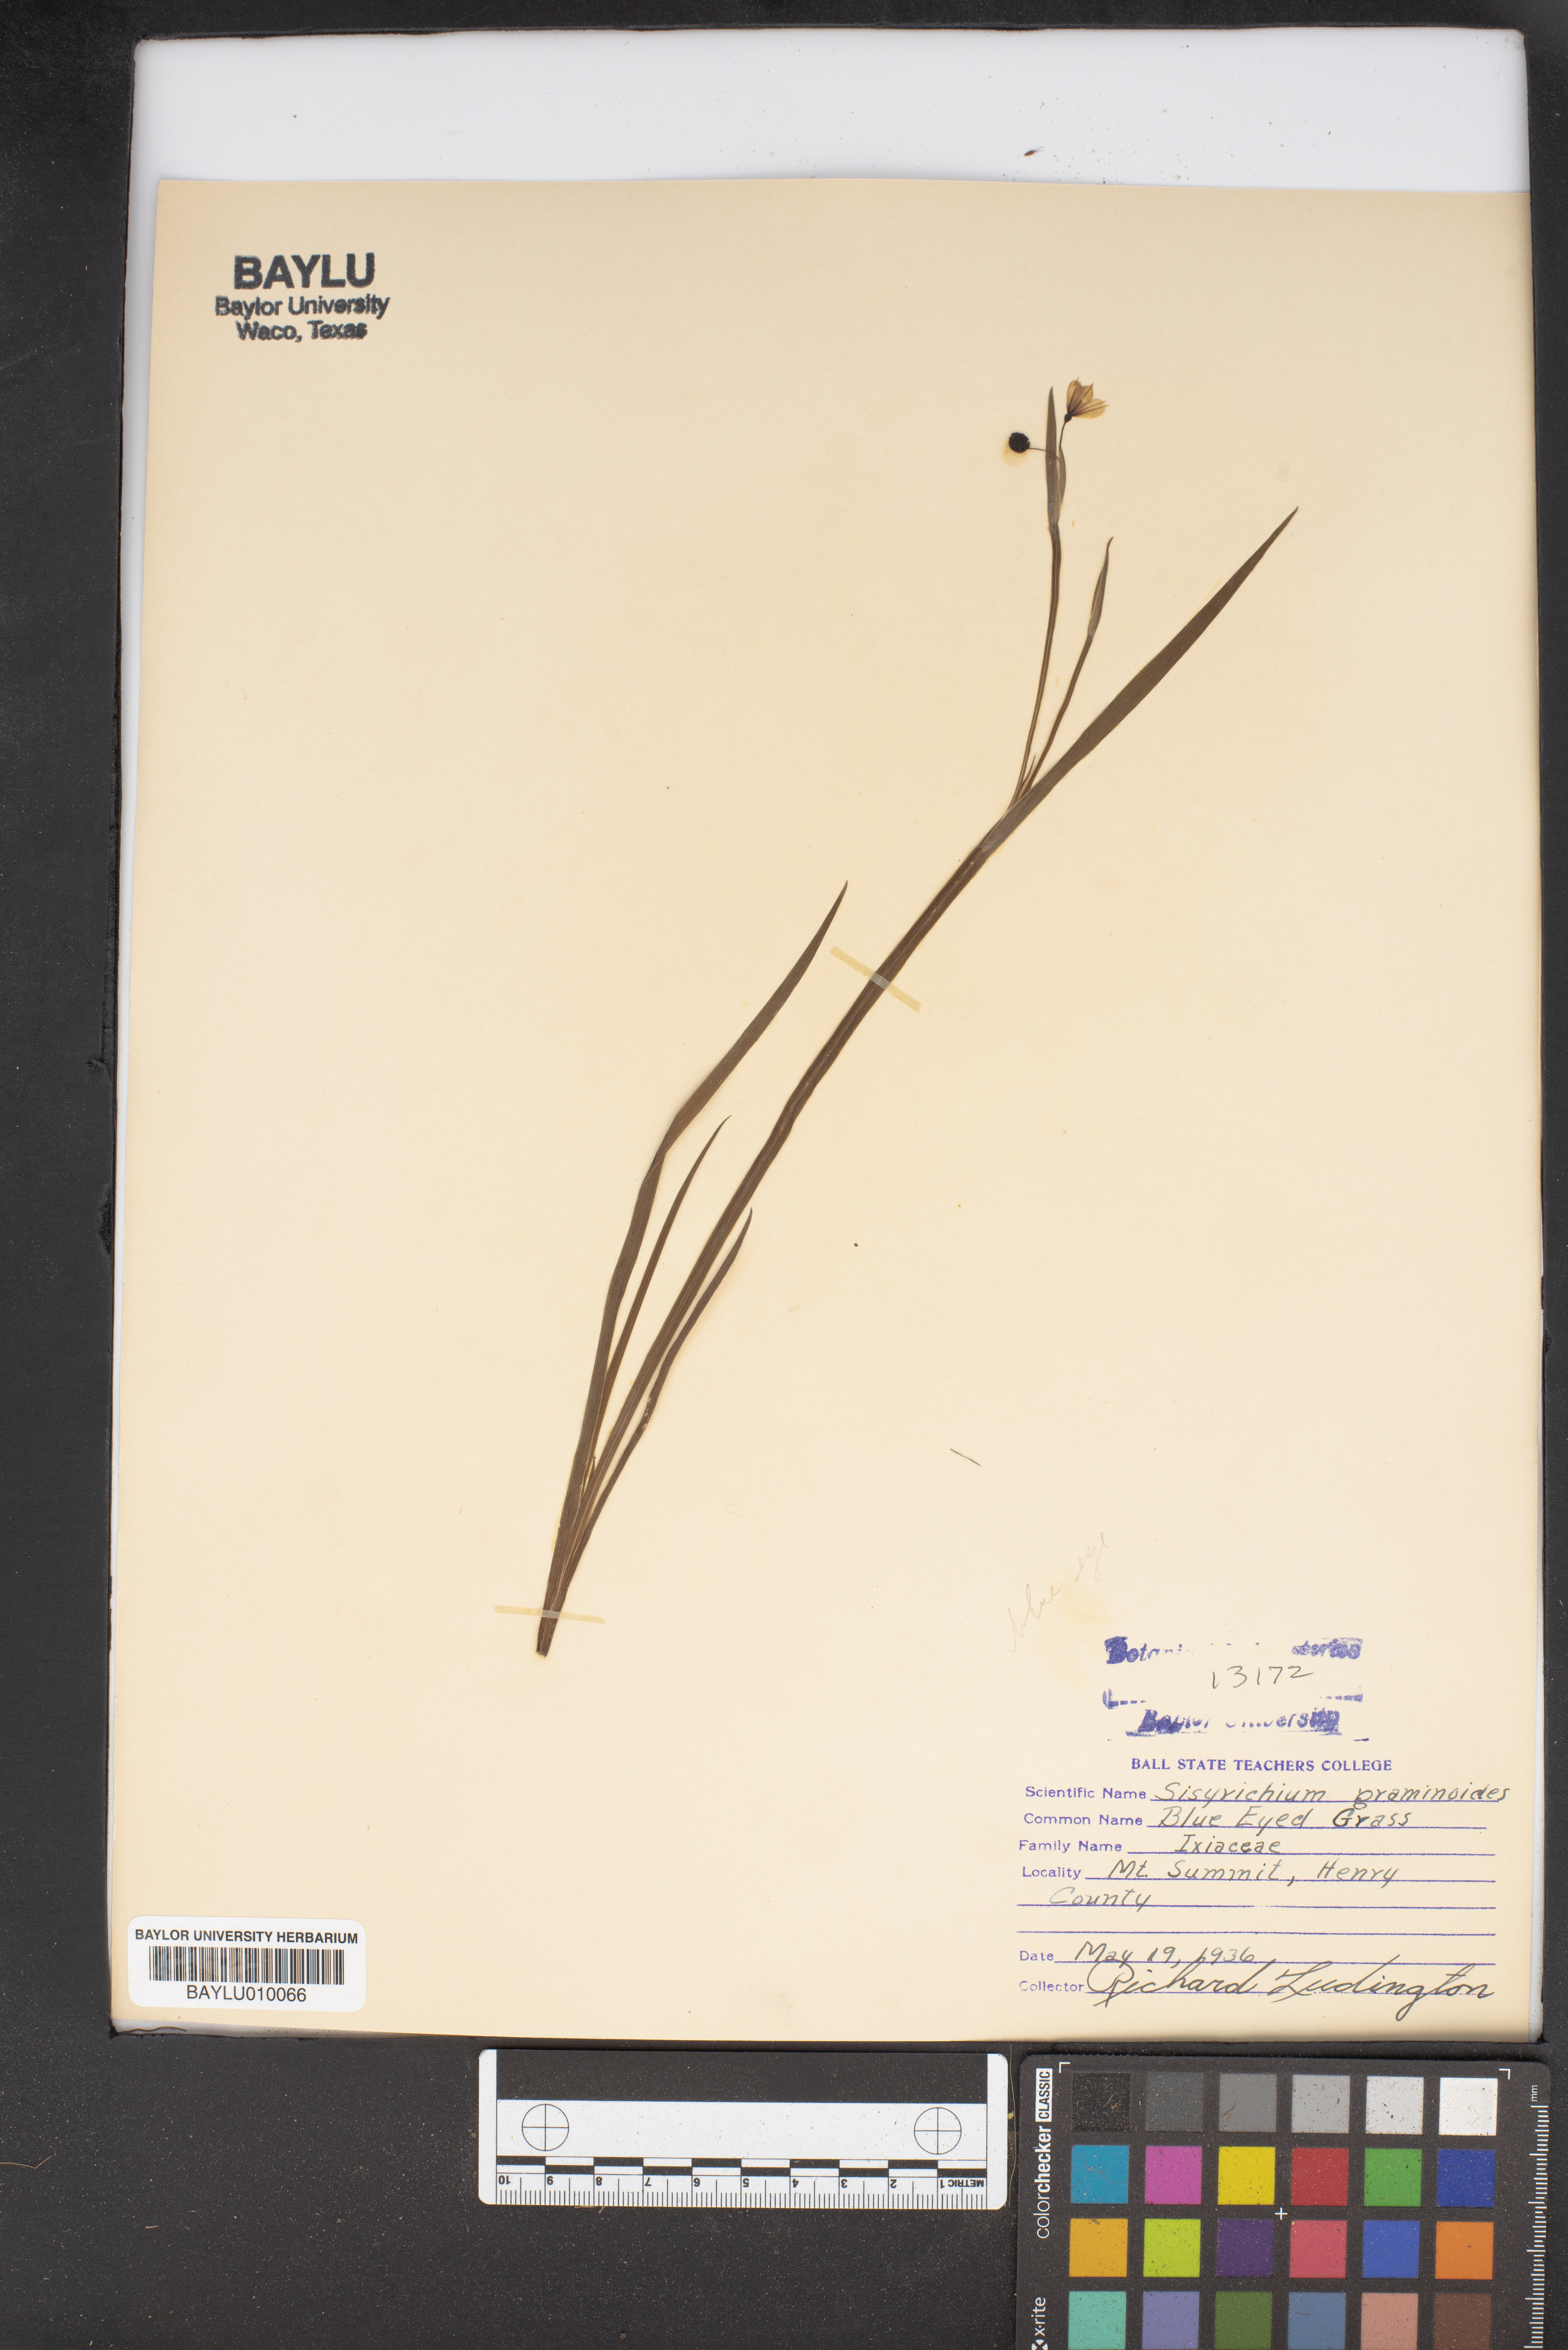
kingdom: Plantae
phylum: Tracheophyta
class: Liliopsida
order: Asparagales
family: Iridaceae
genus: Sisyrinchium
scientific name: Sisyrinchium angustifolium
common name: Narrow-leaf blue-eyed-grass
